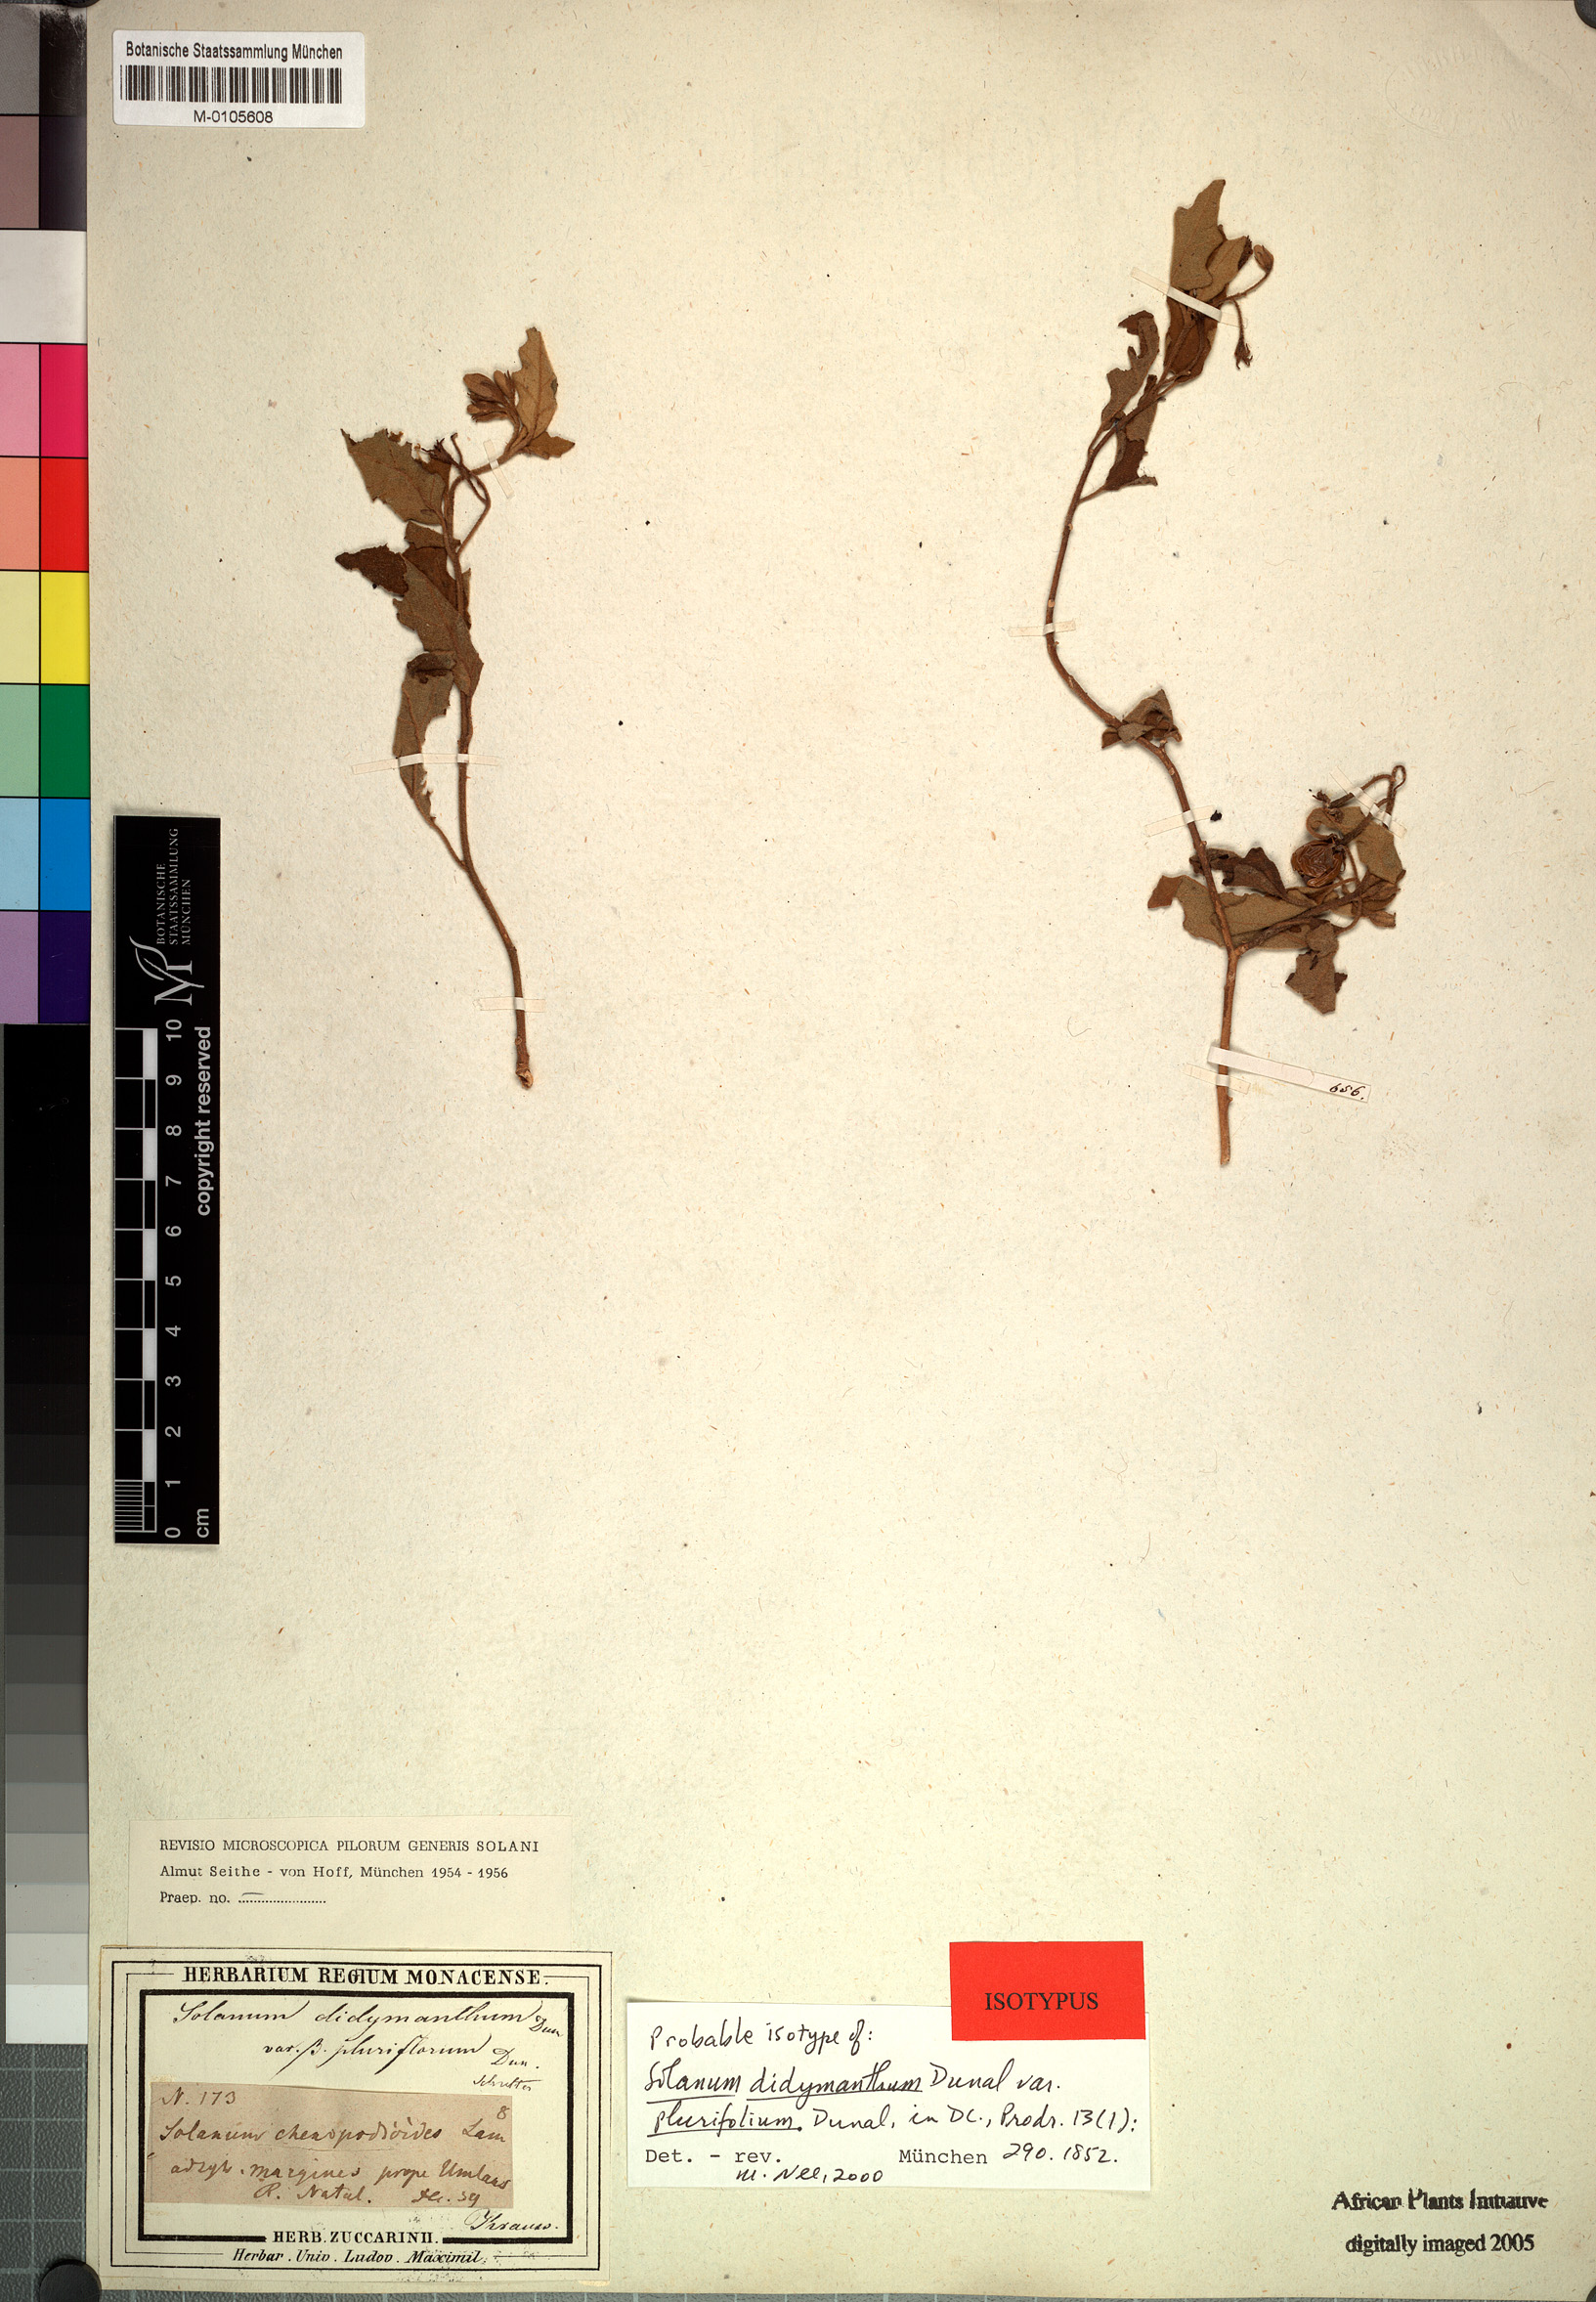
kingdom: Plantae
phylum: Tracheophyta
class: Magnoliopsida
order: Solanales
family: Solanaceae
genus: Solanum
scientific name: Solanum rubetorum
